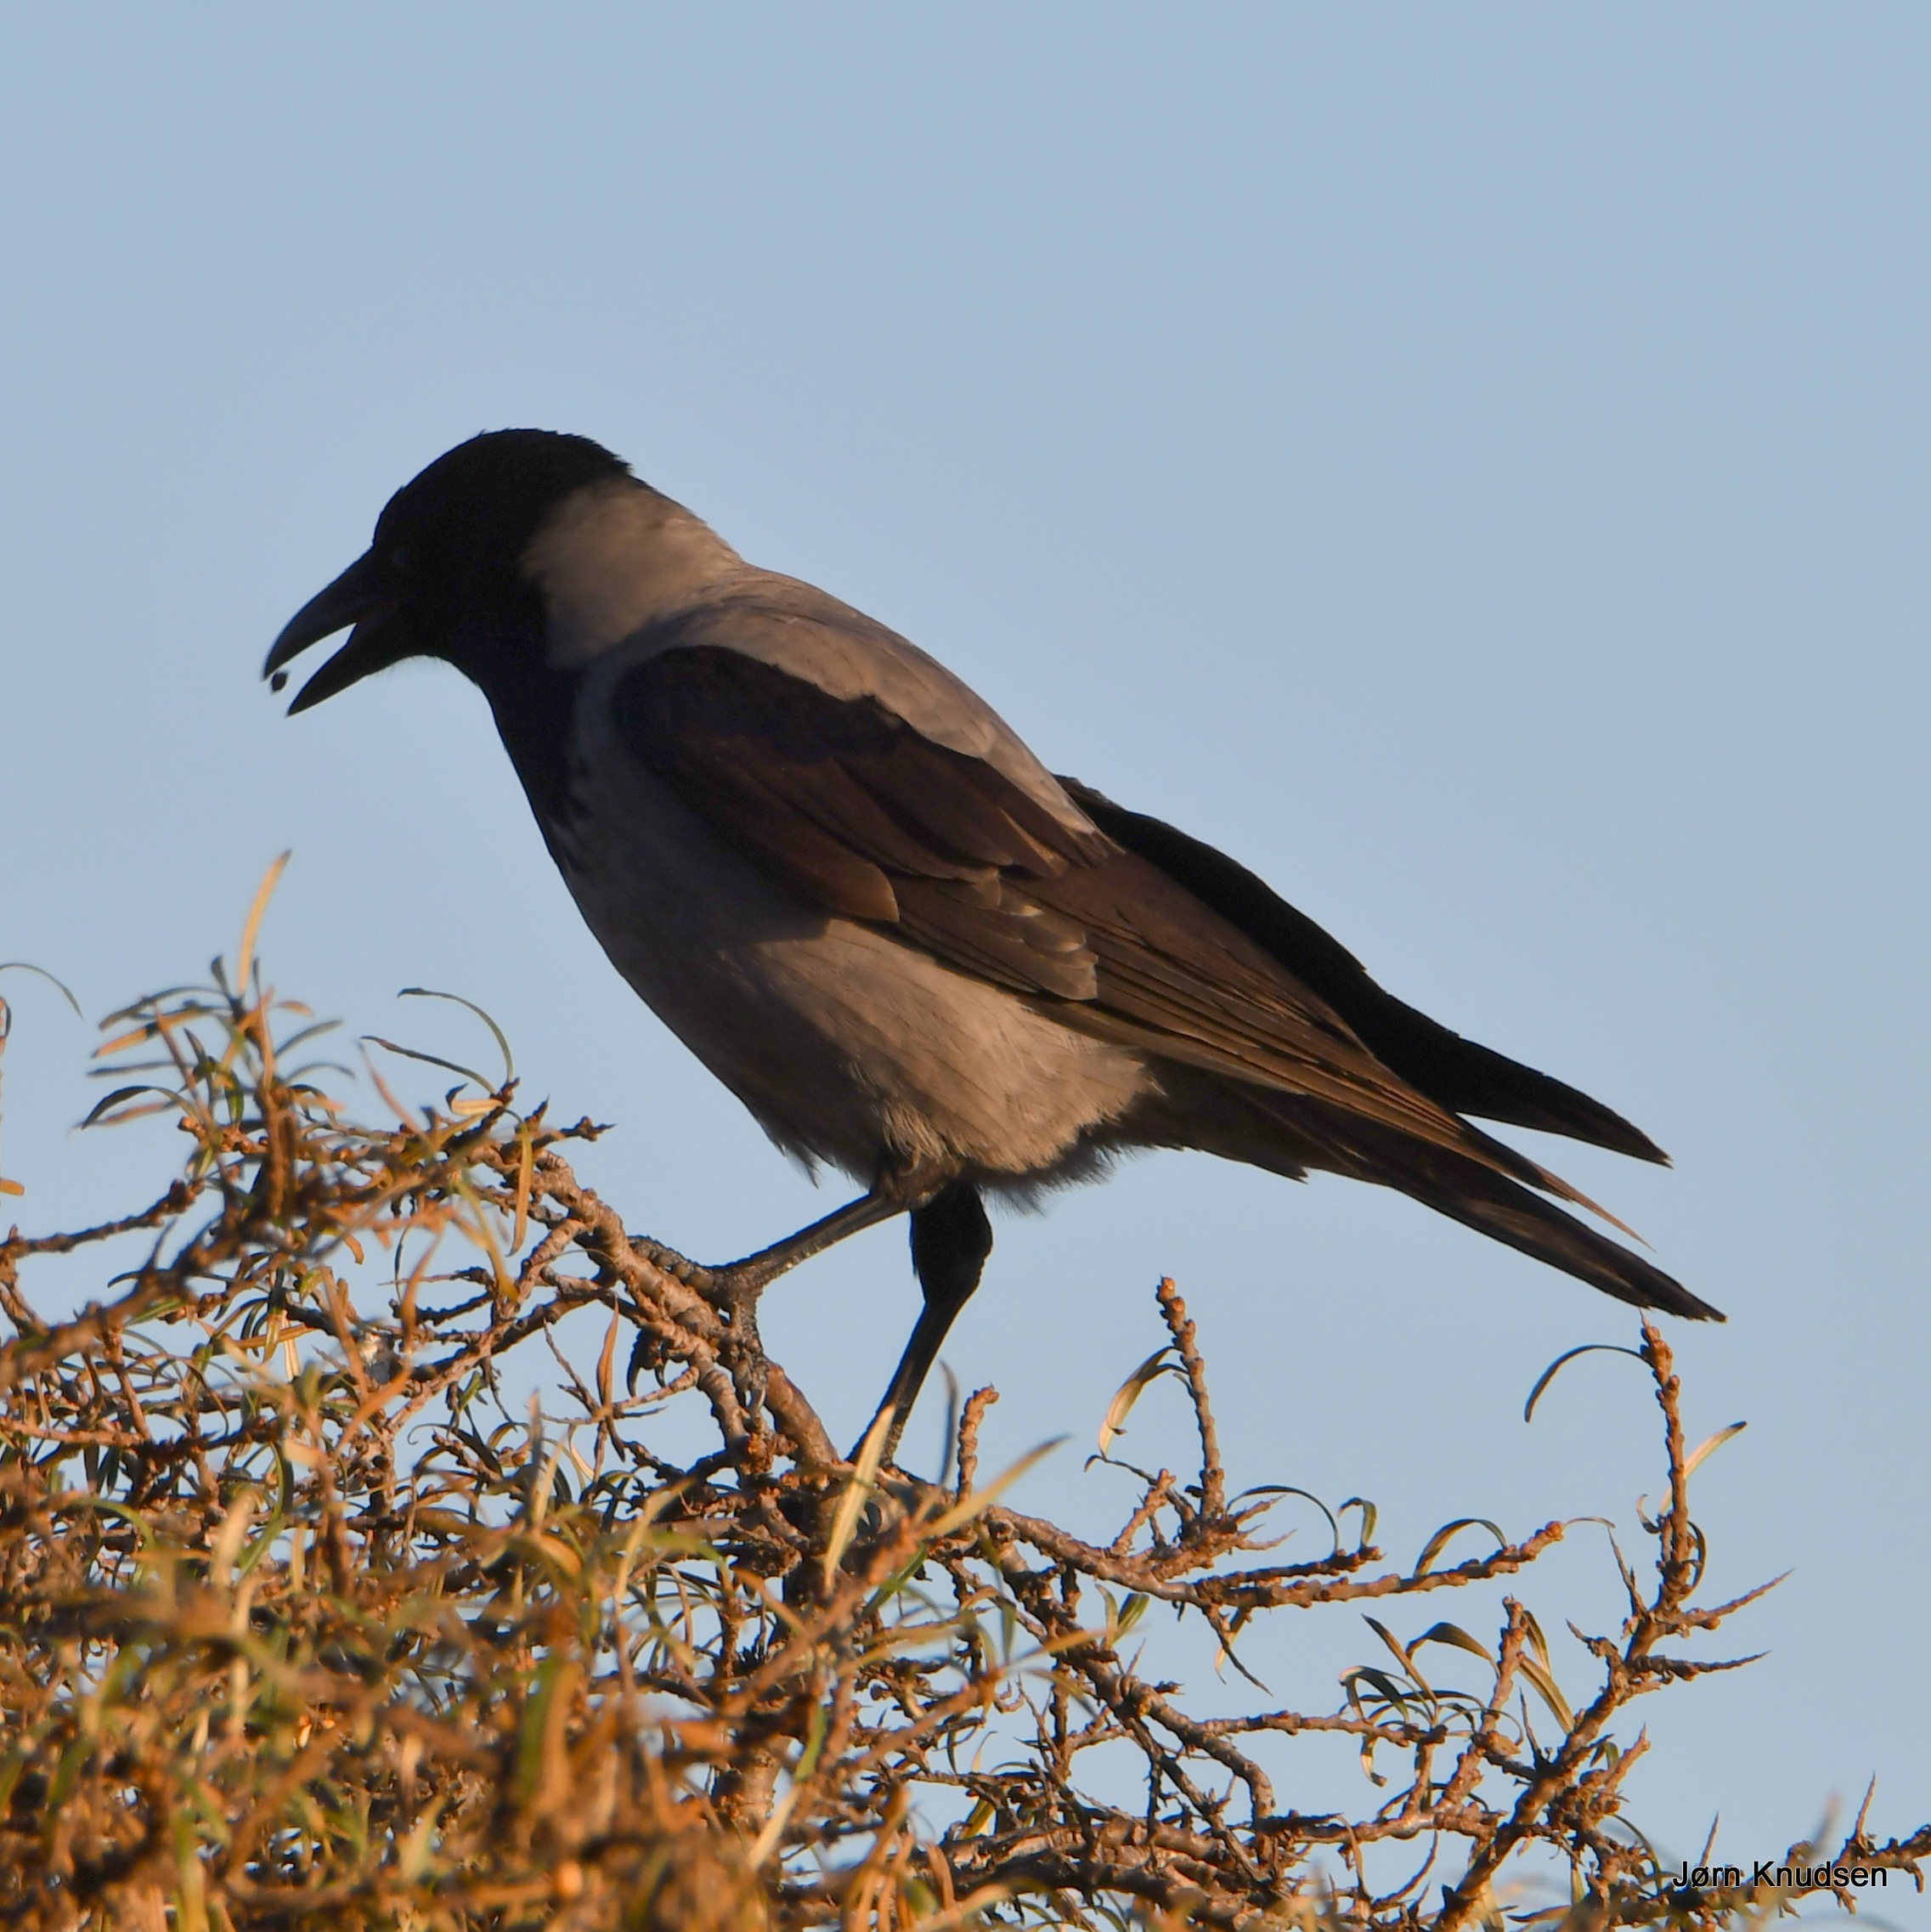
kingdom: Animalia
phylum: Chordata
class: Aves
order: Passeriformes
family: Corvidae
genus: Corvus
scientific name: Corvus cornix
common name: Gråkrage
